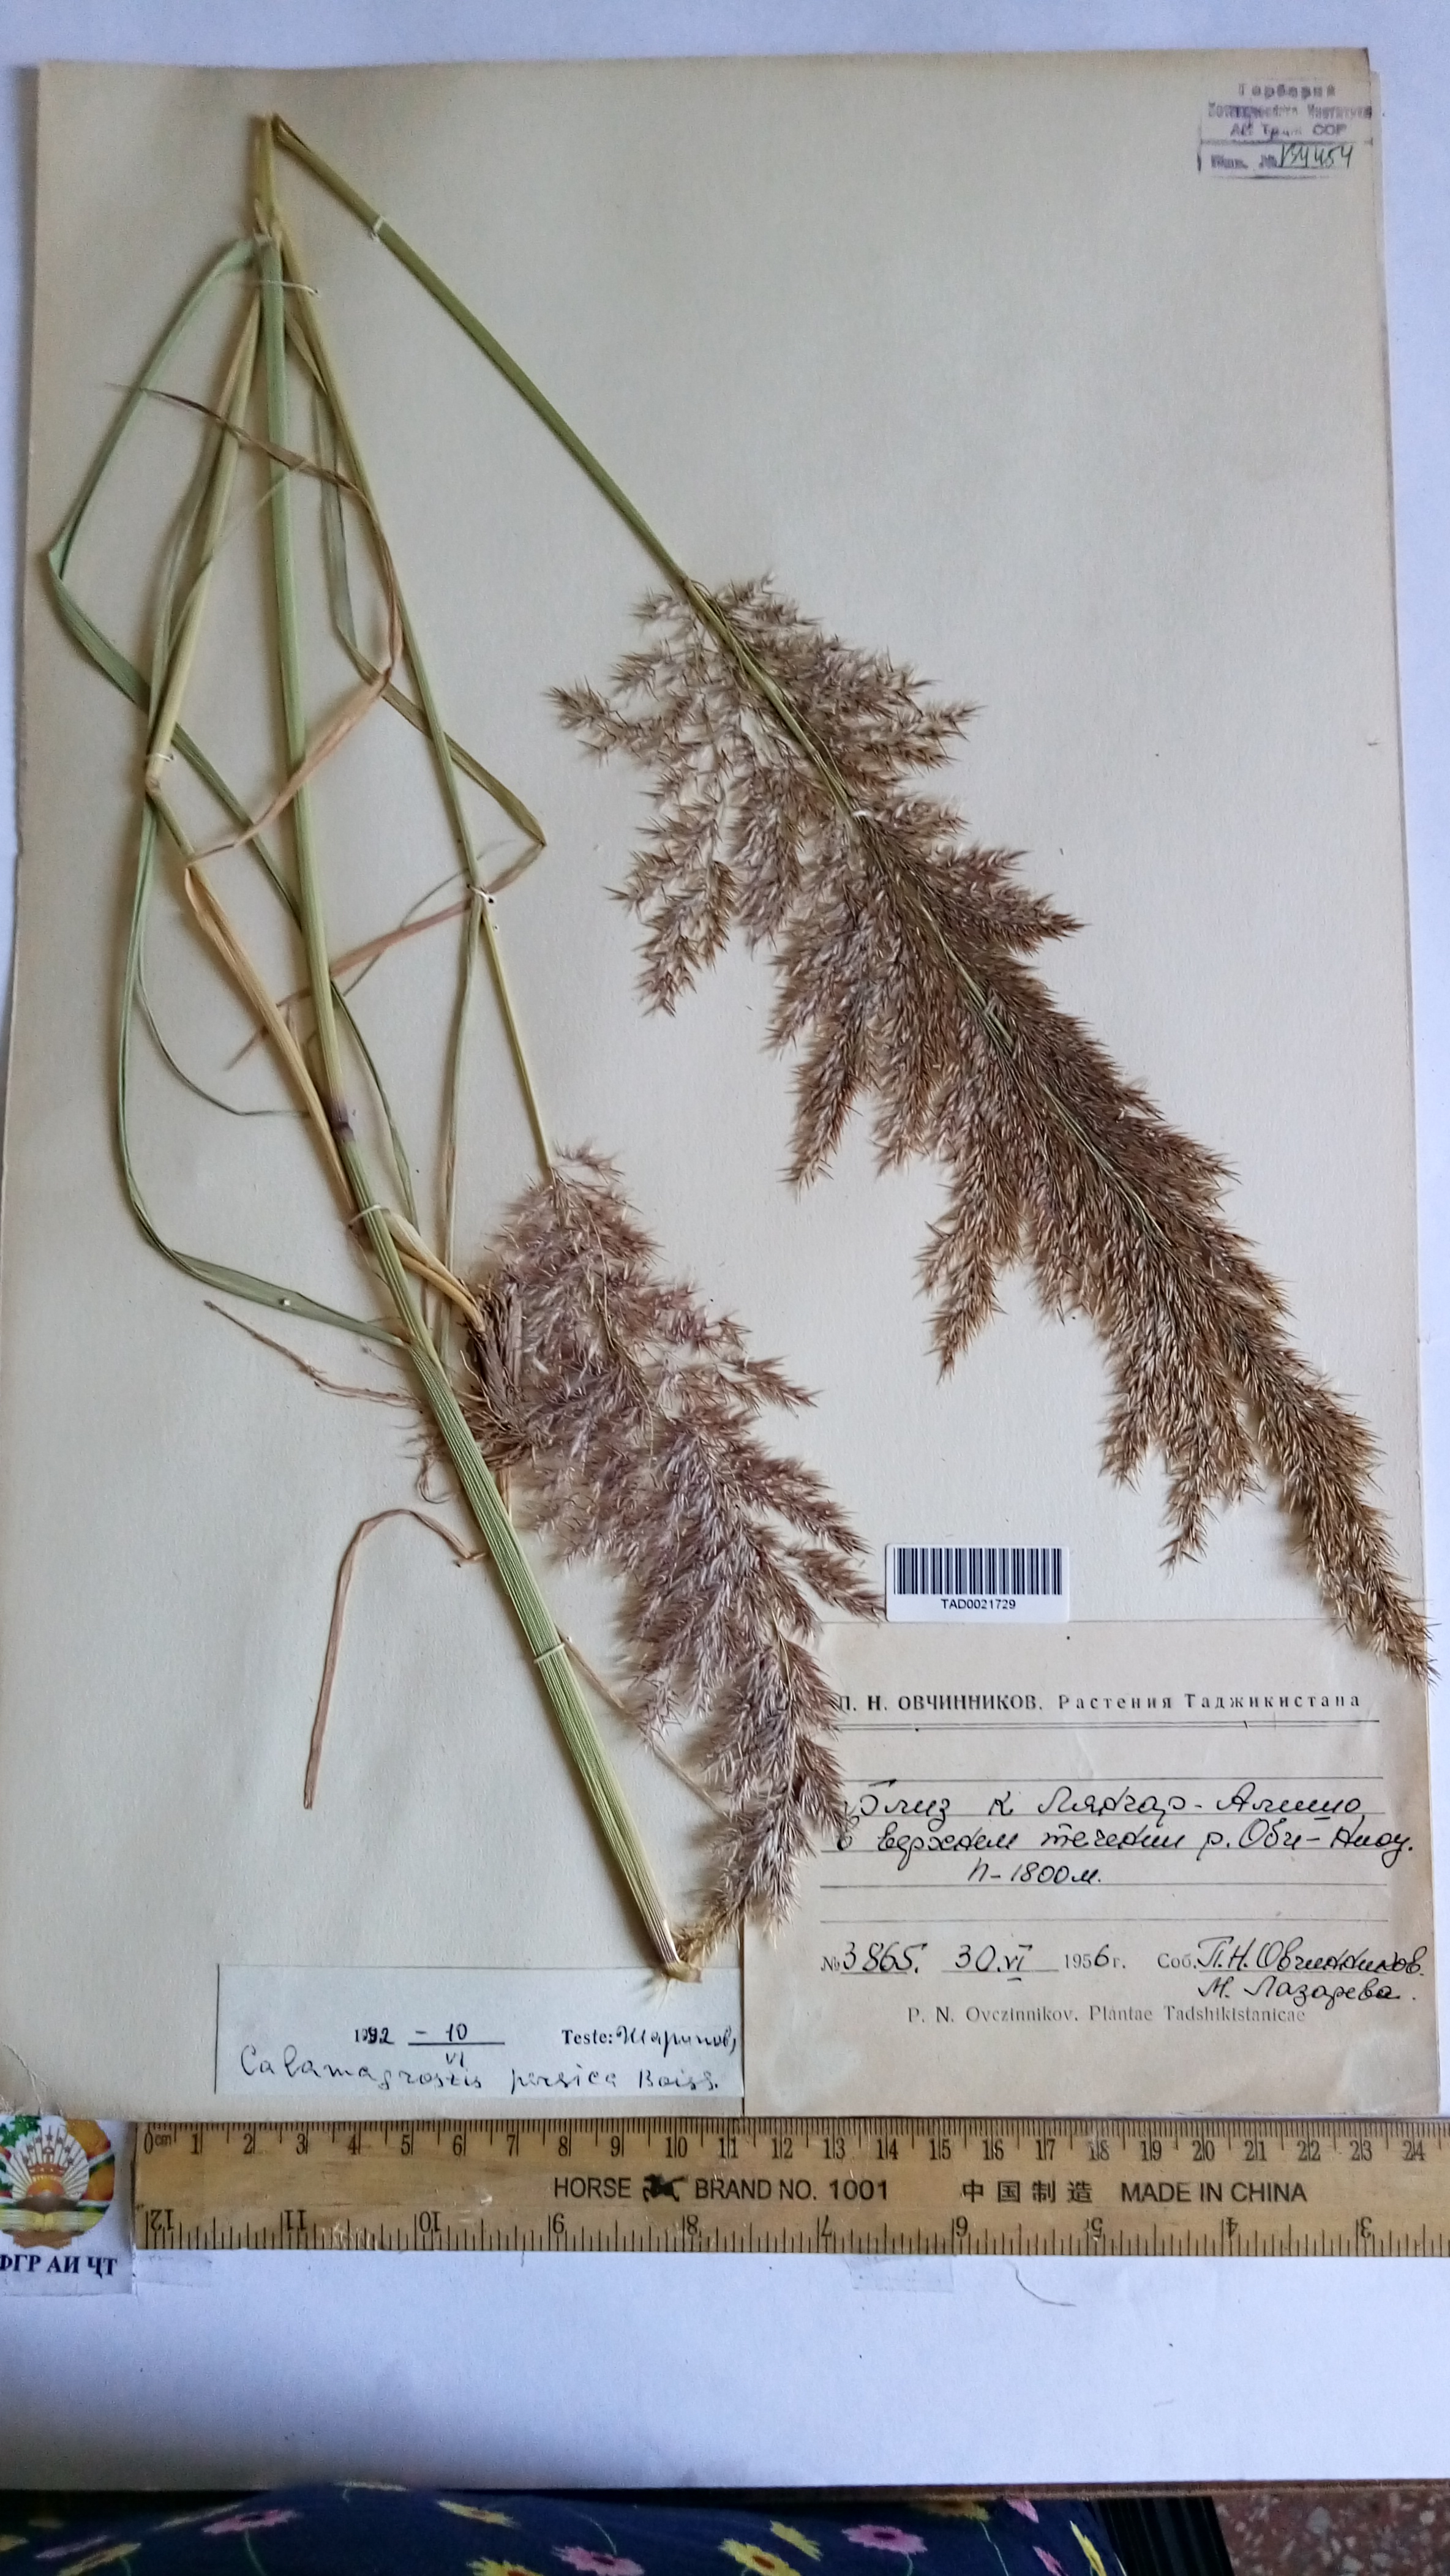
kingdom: Plantae
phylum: Tracheophyta
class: Liliopsida
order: Poales
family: Poaceae
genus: Calamagrostis
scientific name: Calamagrostis pseudophragmites
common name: Coastal small-reed
